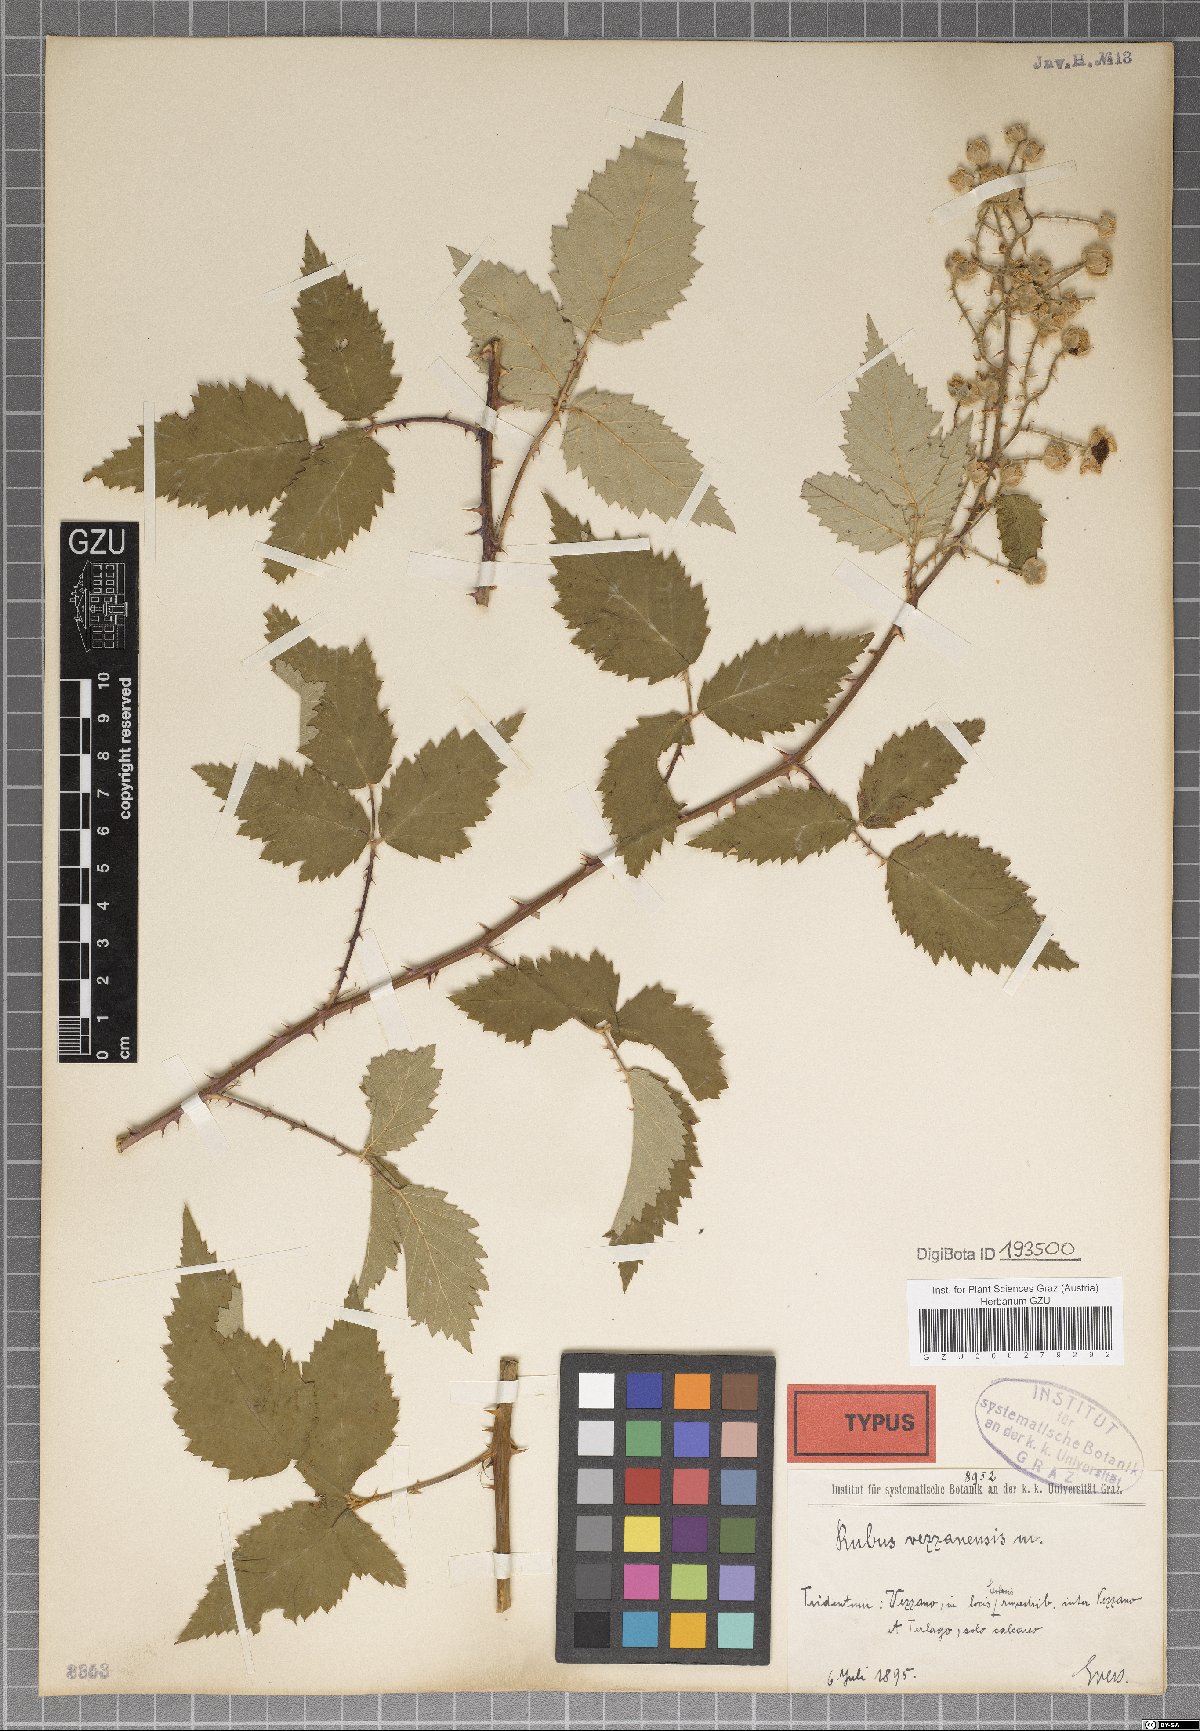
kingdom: Plantae
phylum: Tracheophyta
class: Magnoliopsida
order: Rosales
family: Rosaceae
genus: Rubus
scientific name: Rubus vezzanensis
